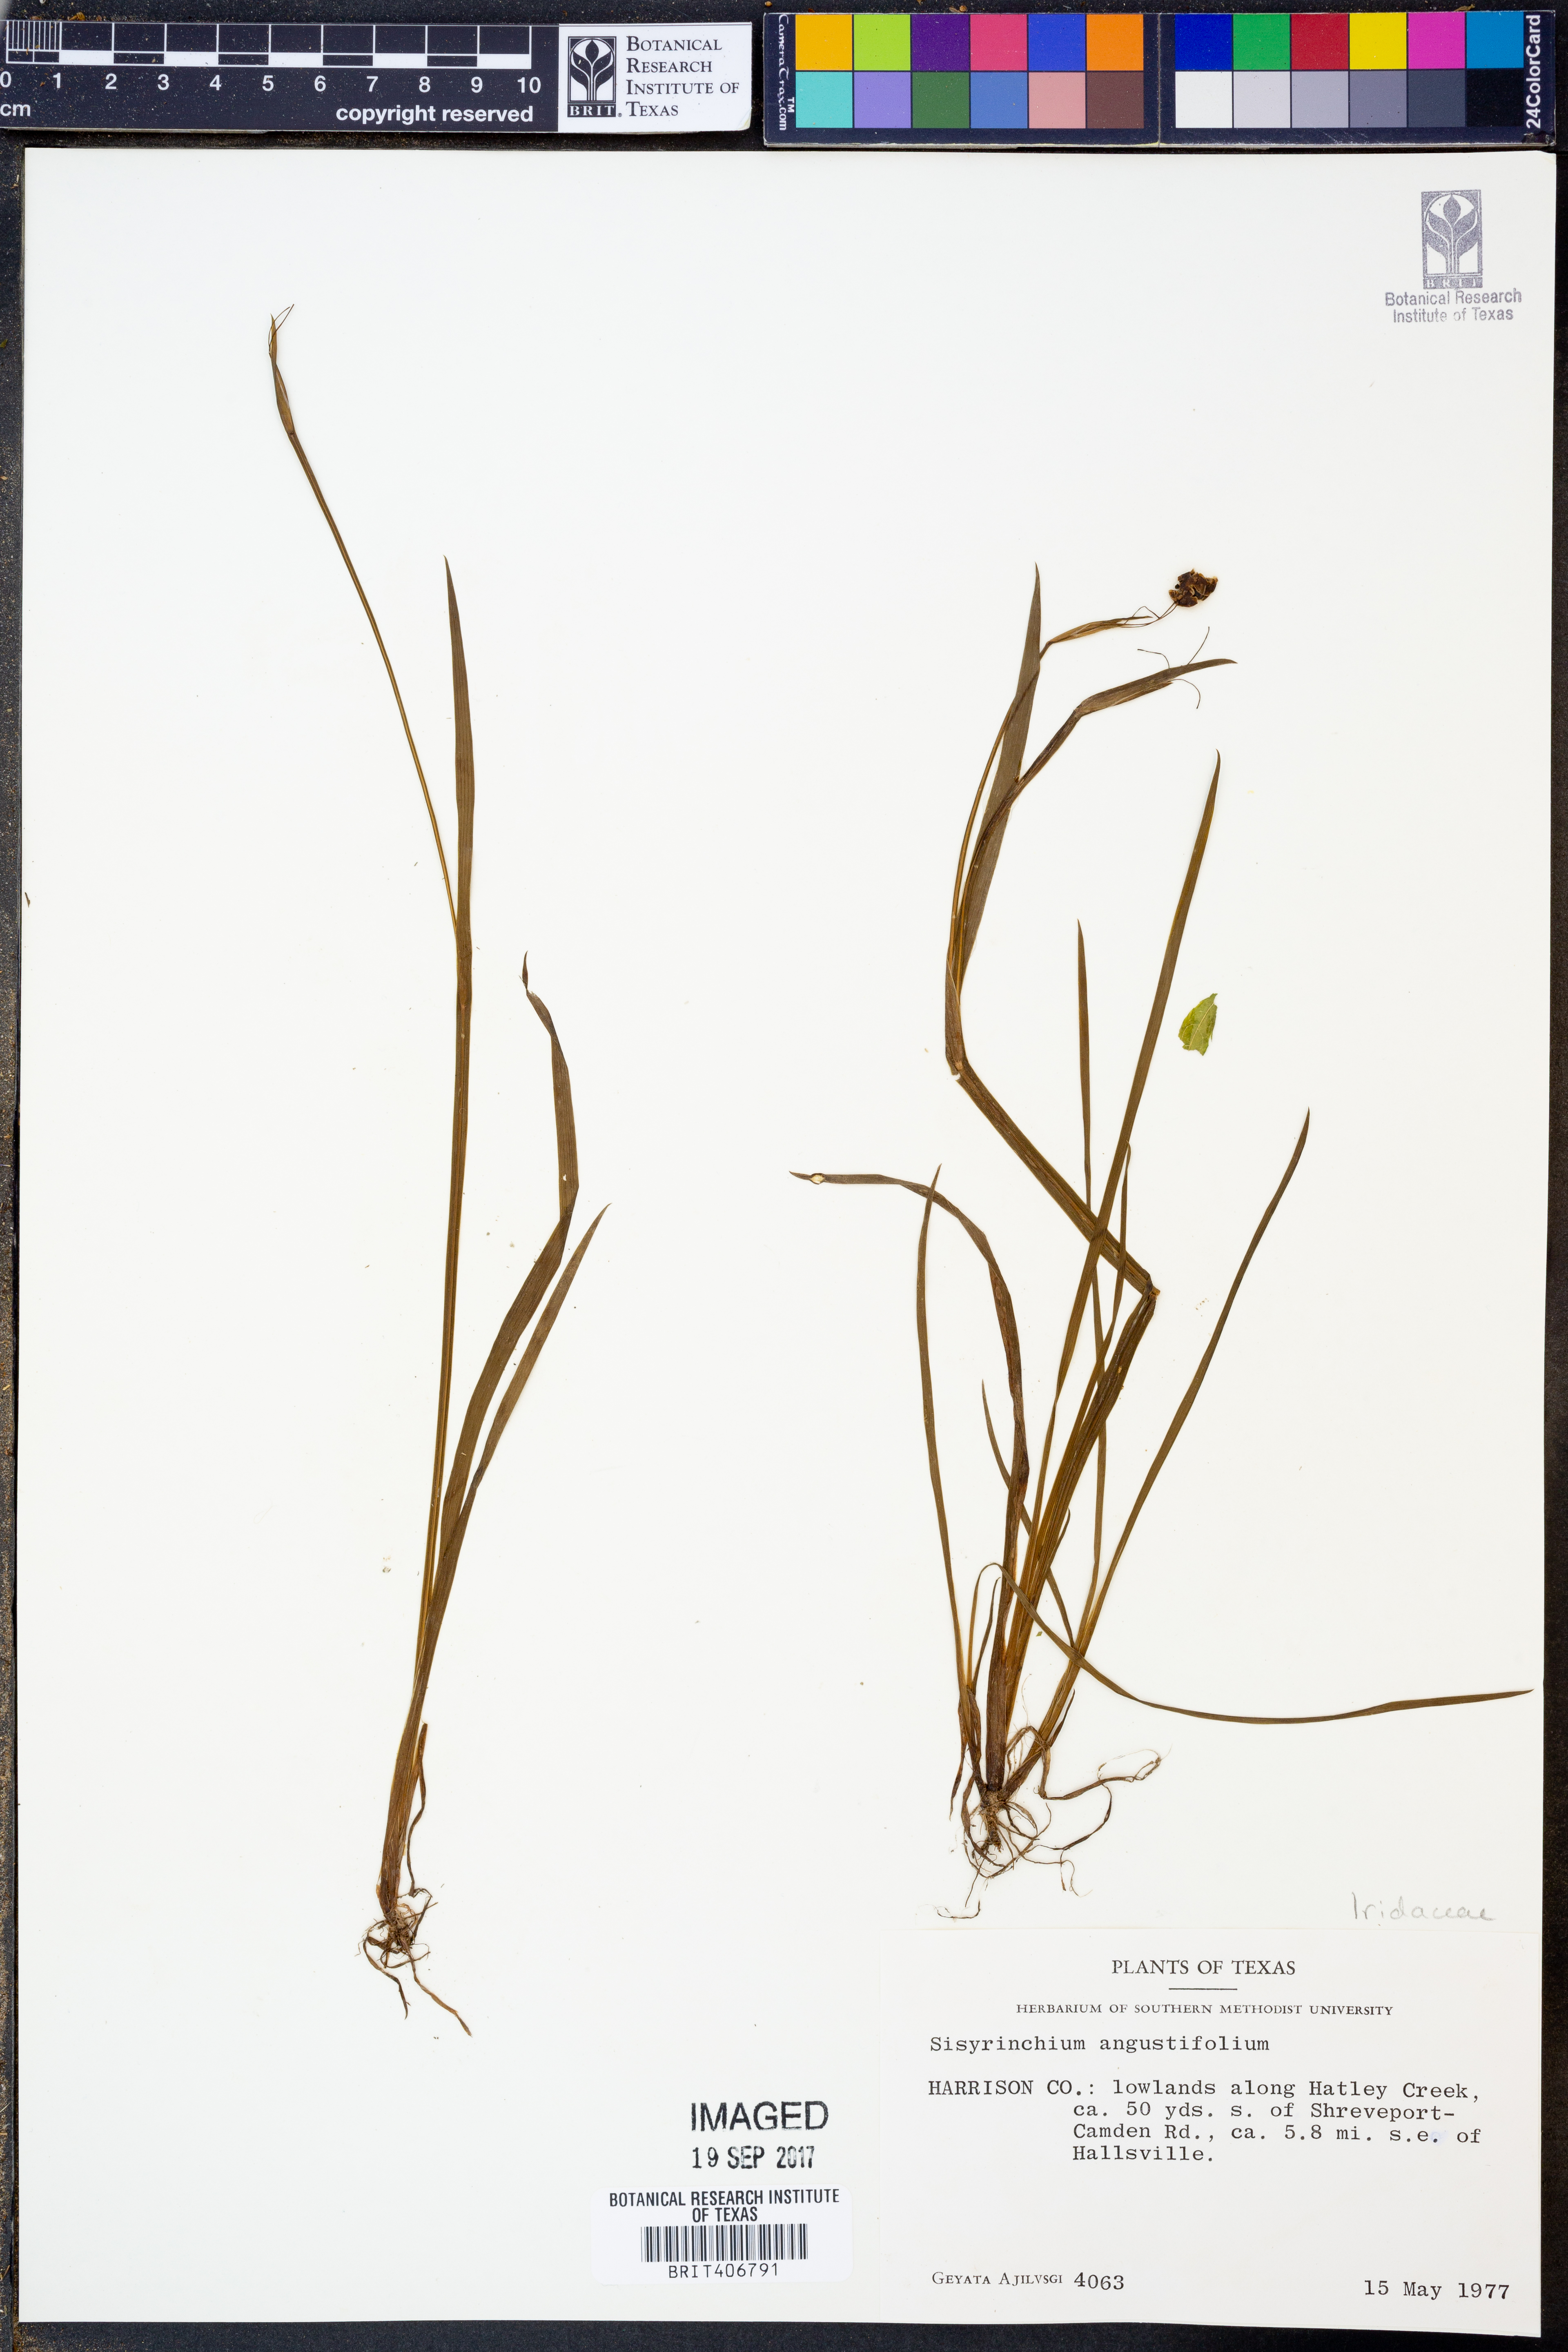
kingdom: Plantae
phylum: Tracheophyta
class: Liliopsida
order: Asparagales
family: Iridaceae
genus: Sisyrinchium
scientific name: Sisyrinchium angustifolium
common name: Narrow-leaf blue-eyed-grass
